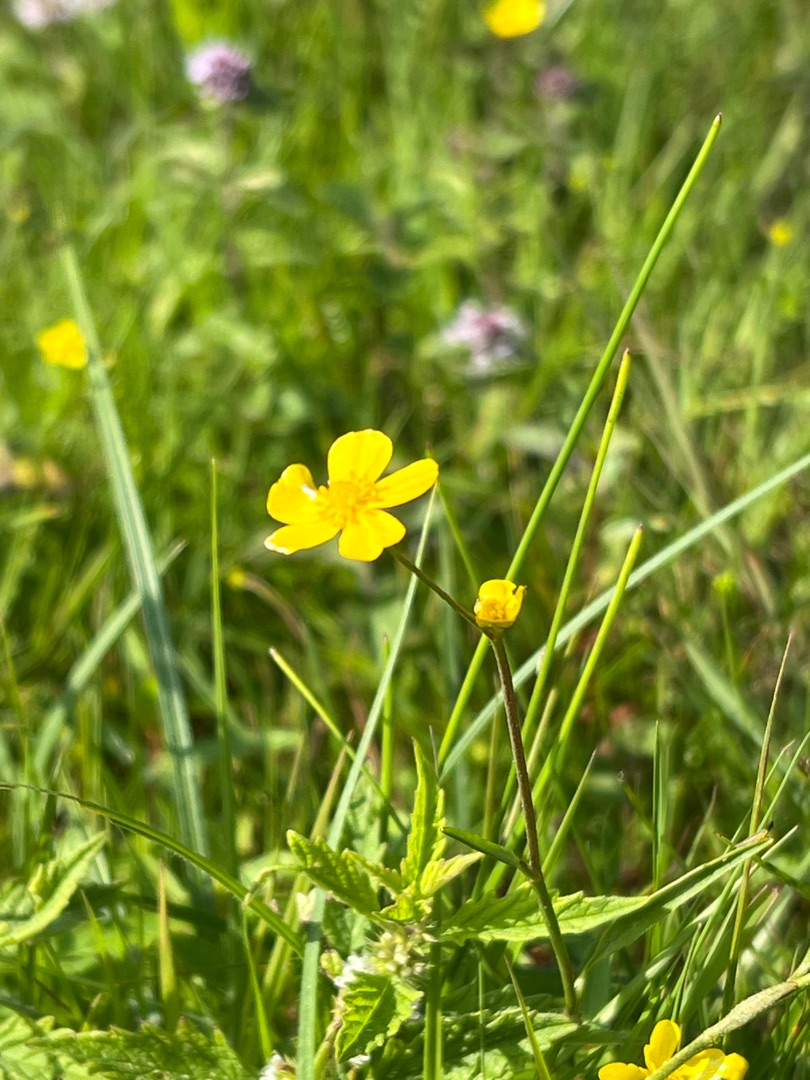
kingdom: Plantae
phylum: Tracheophyta
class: Magnoliopsida
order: Ranunculales
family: Ranunculaceae
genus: Ranunculus
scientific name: Ranunculus flammula
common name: Kær-ranunkel
